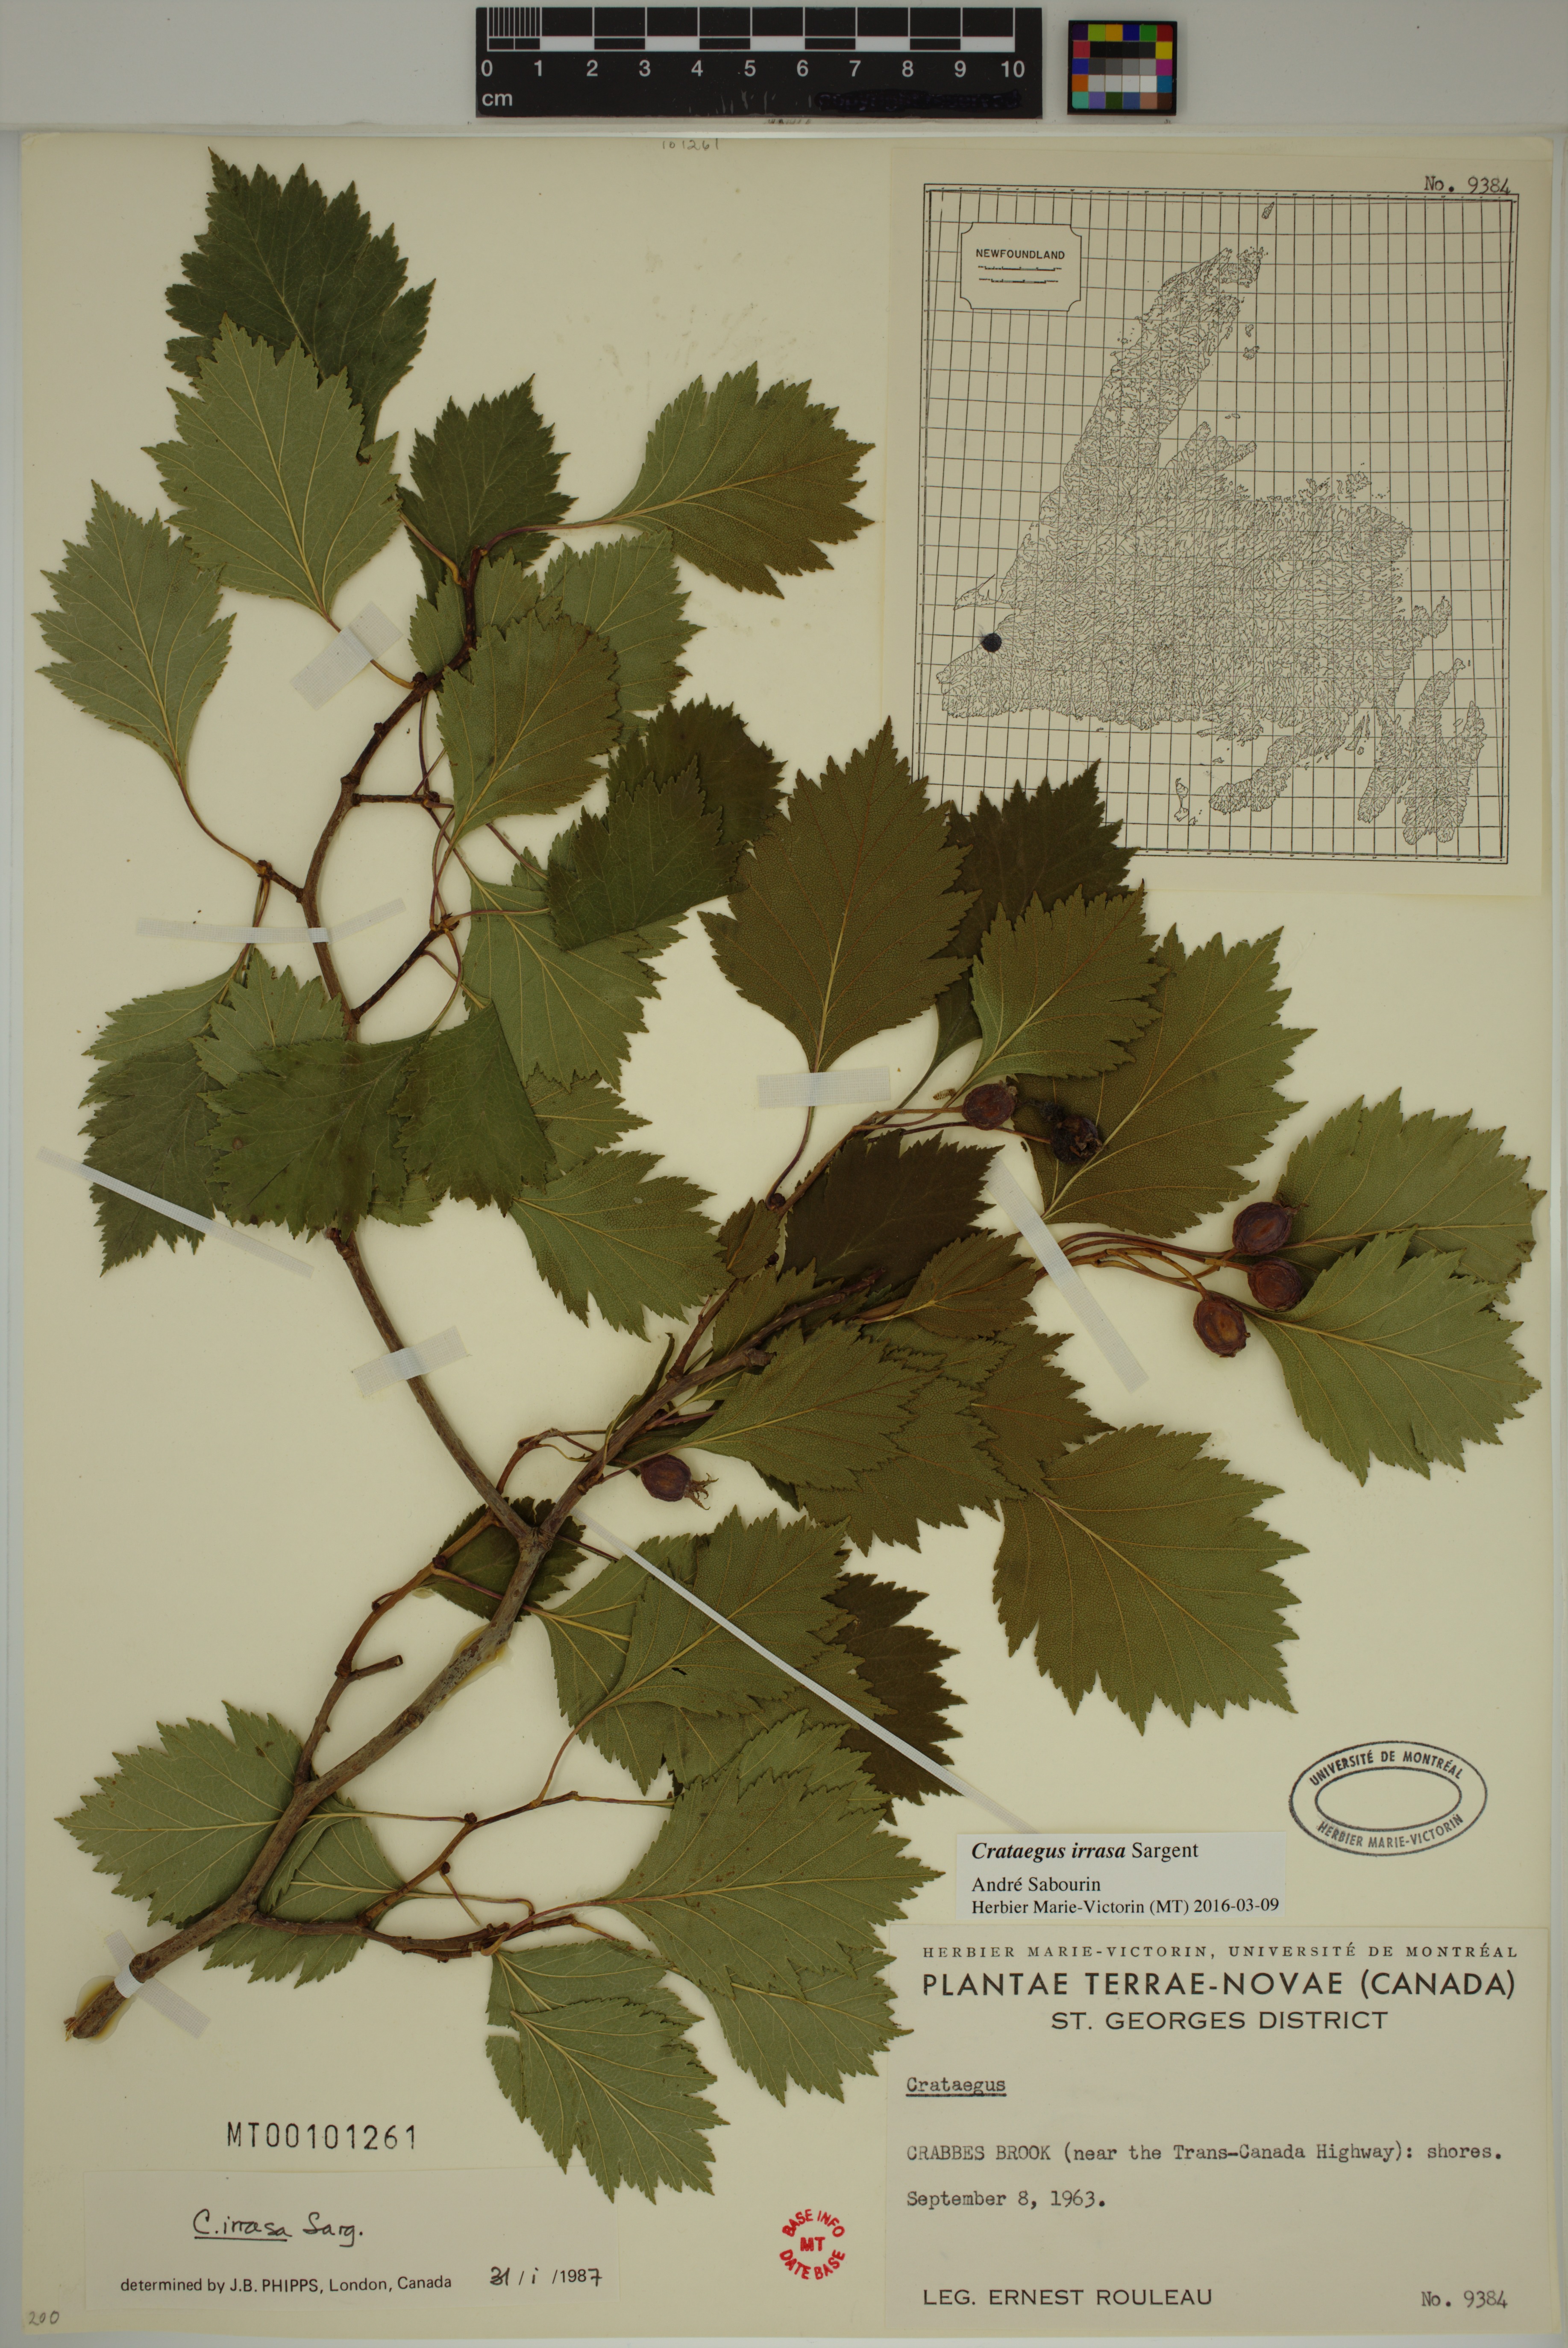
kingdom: Plantae
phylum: Tracheophyta
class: Magnoliopsida
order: Rosales
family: Rosaceae
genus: Crataegus
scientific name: Crataegus irrasa
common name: Unshorn hawthorn
